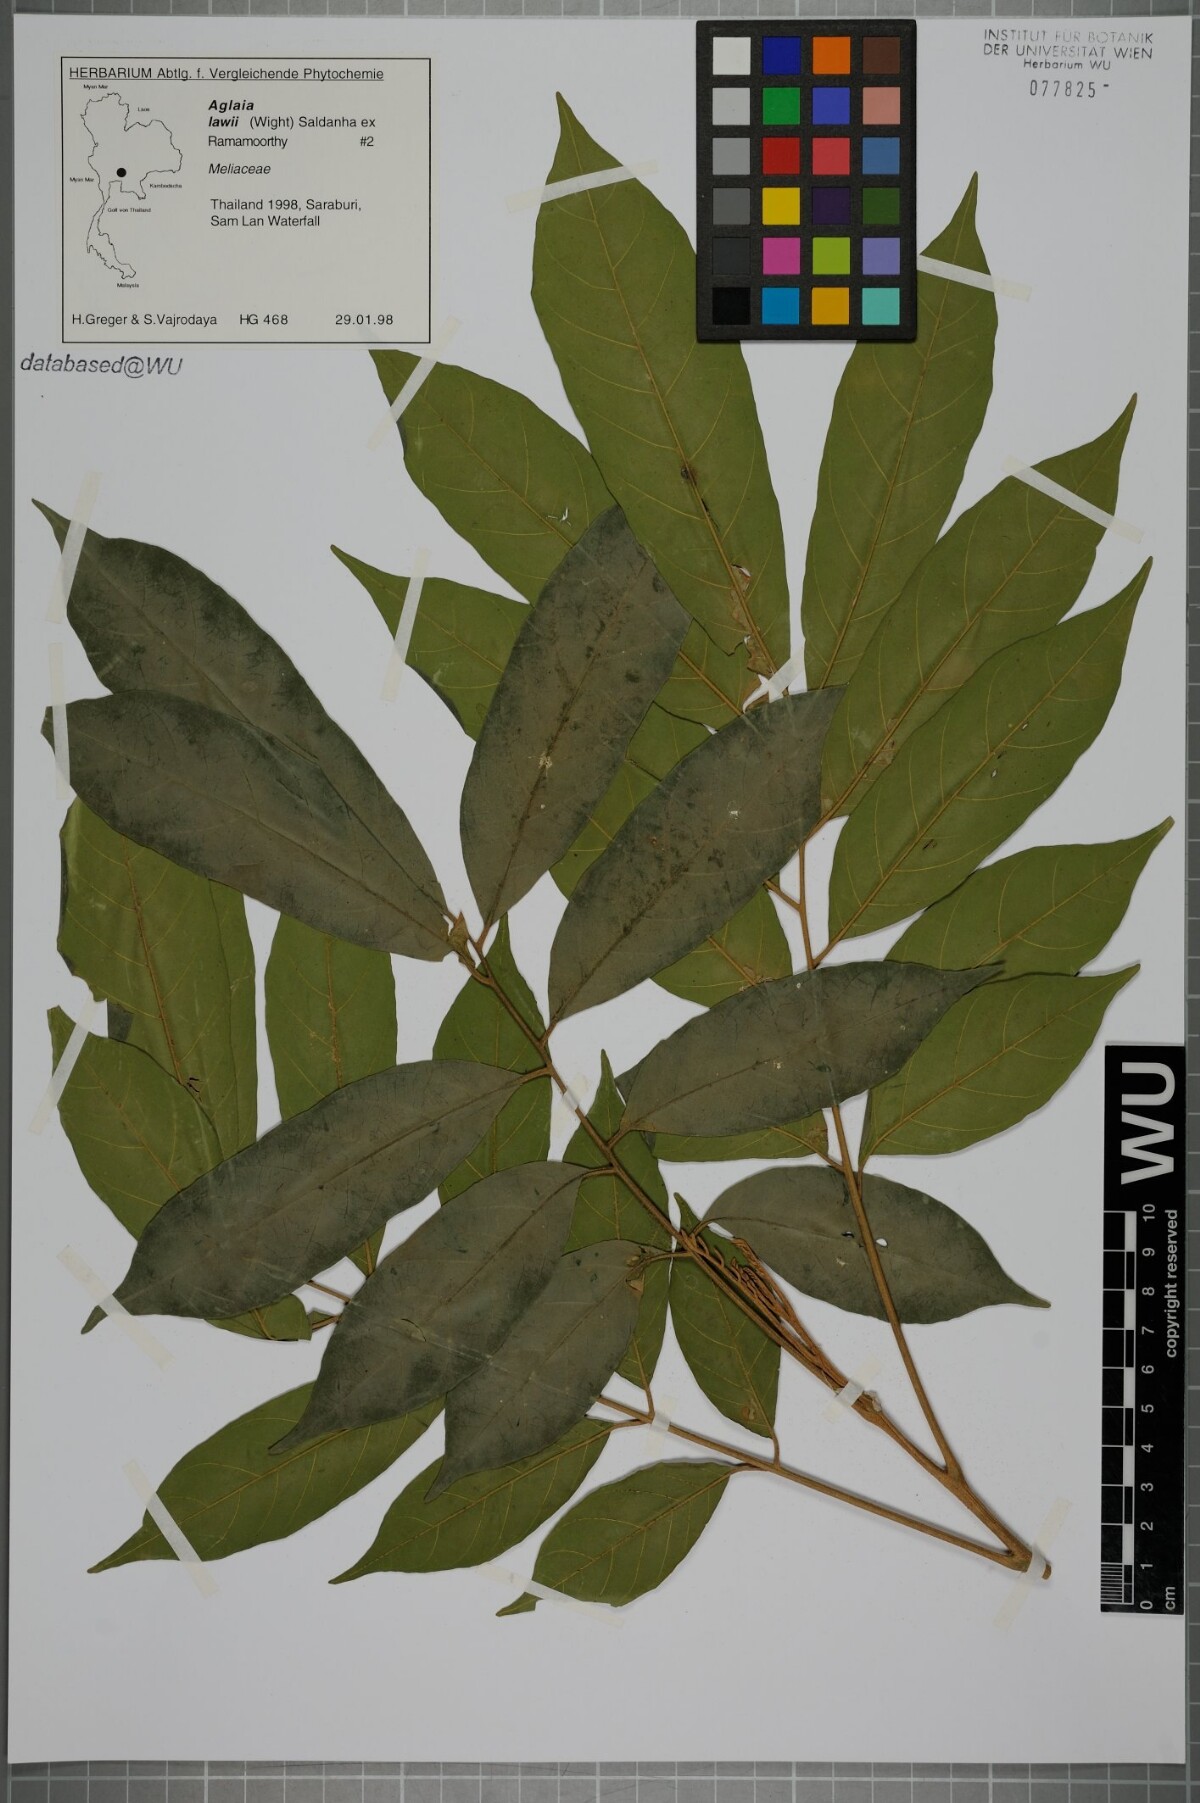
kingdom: Plantae
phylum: Tracheophyta
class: Magnoliopsida
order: Sapindales
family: Meliaceae
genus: Aglaia
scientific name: Aglaia lawii
